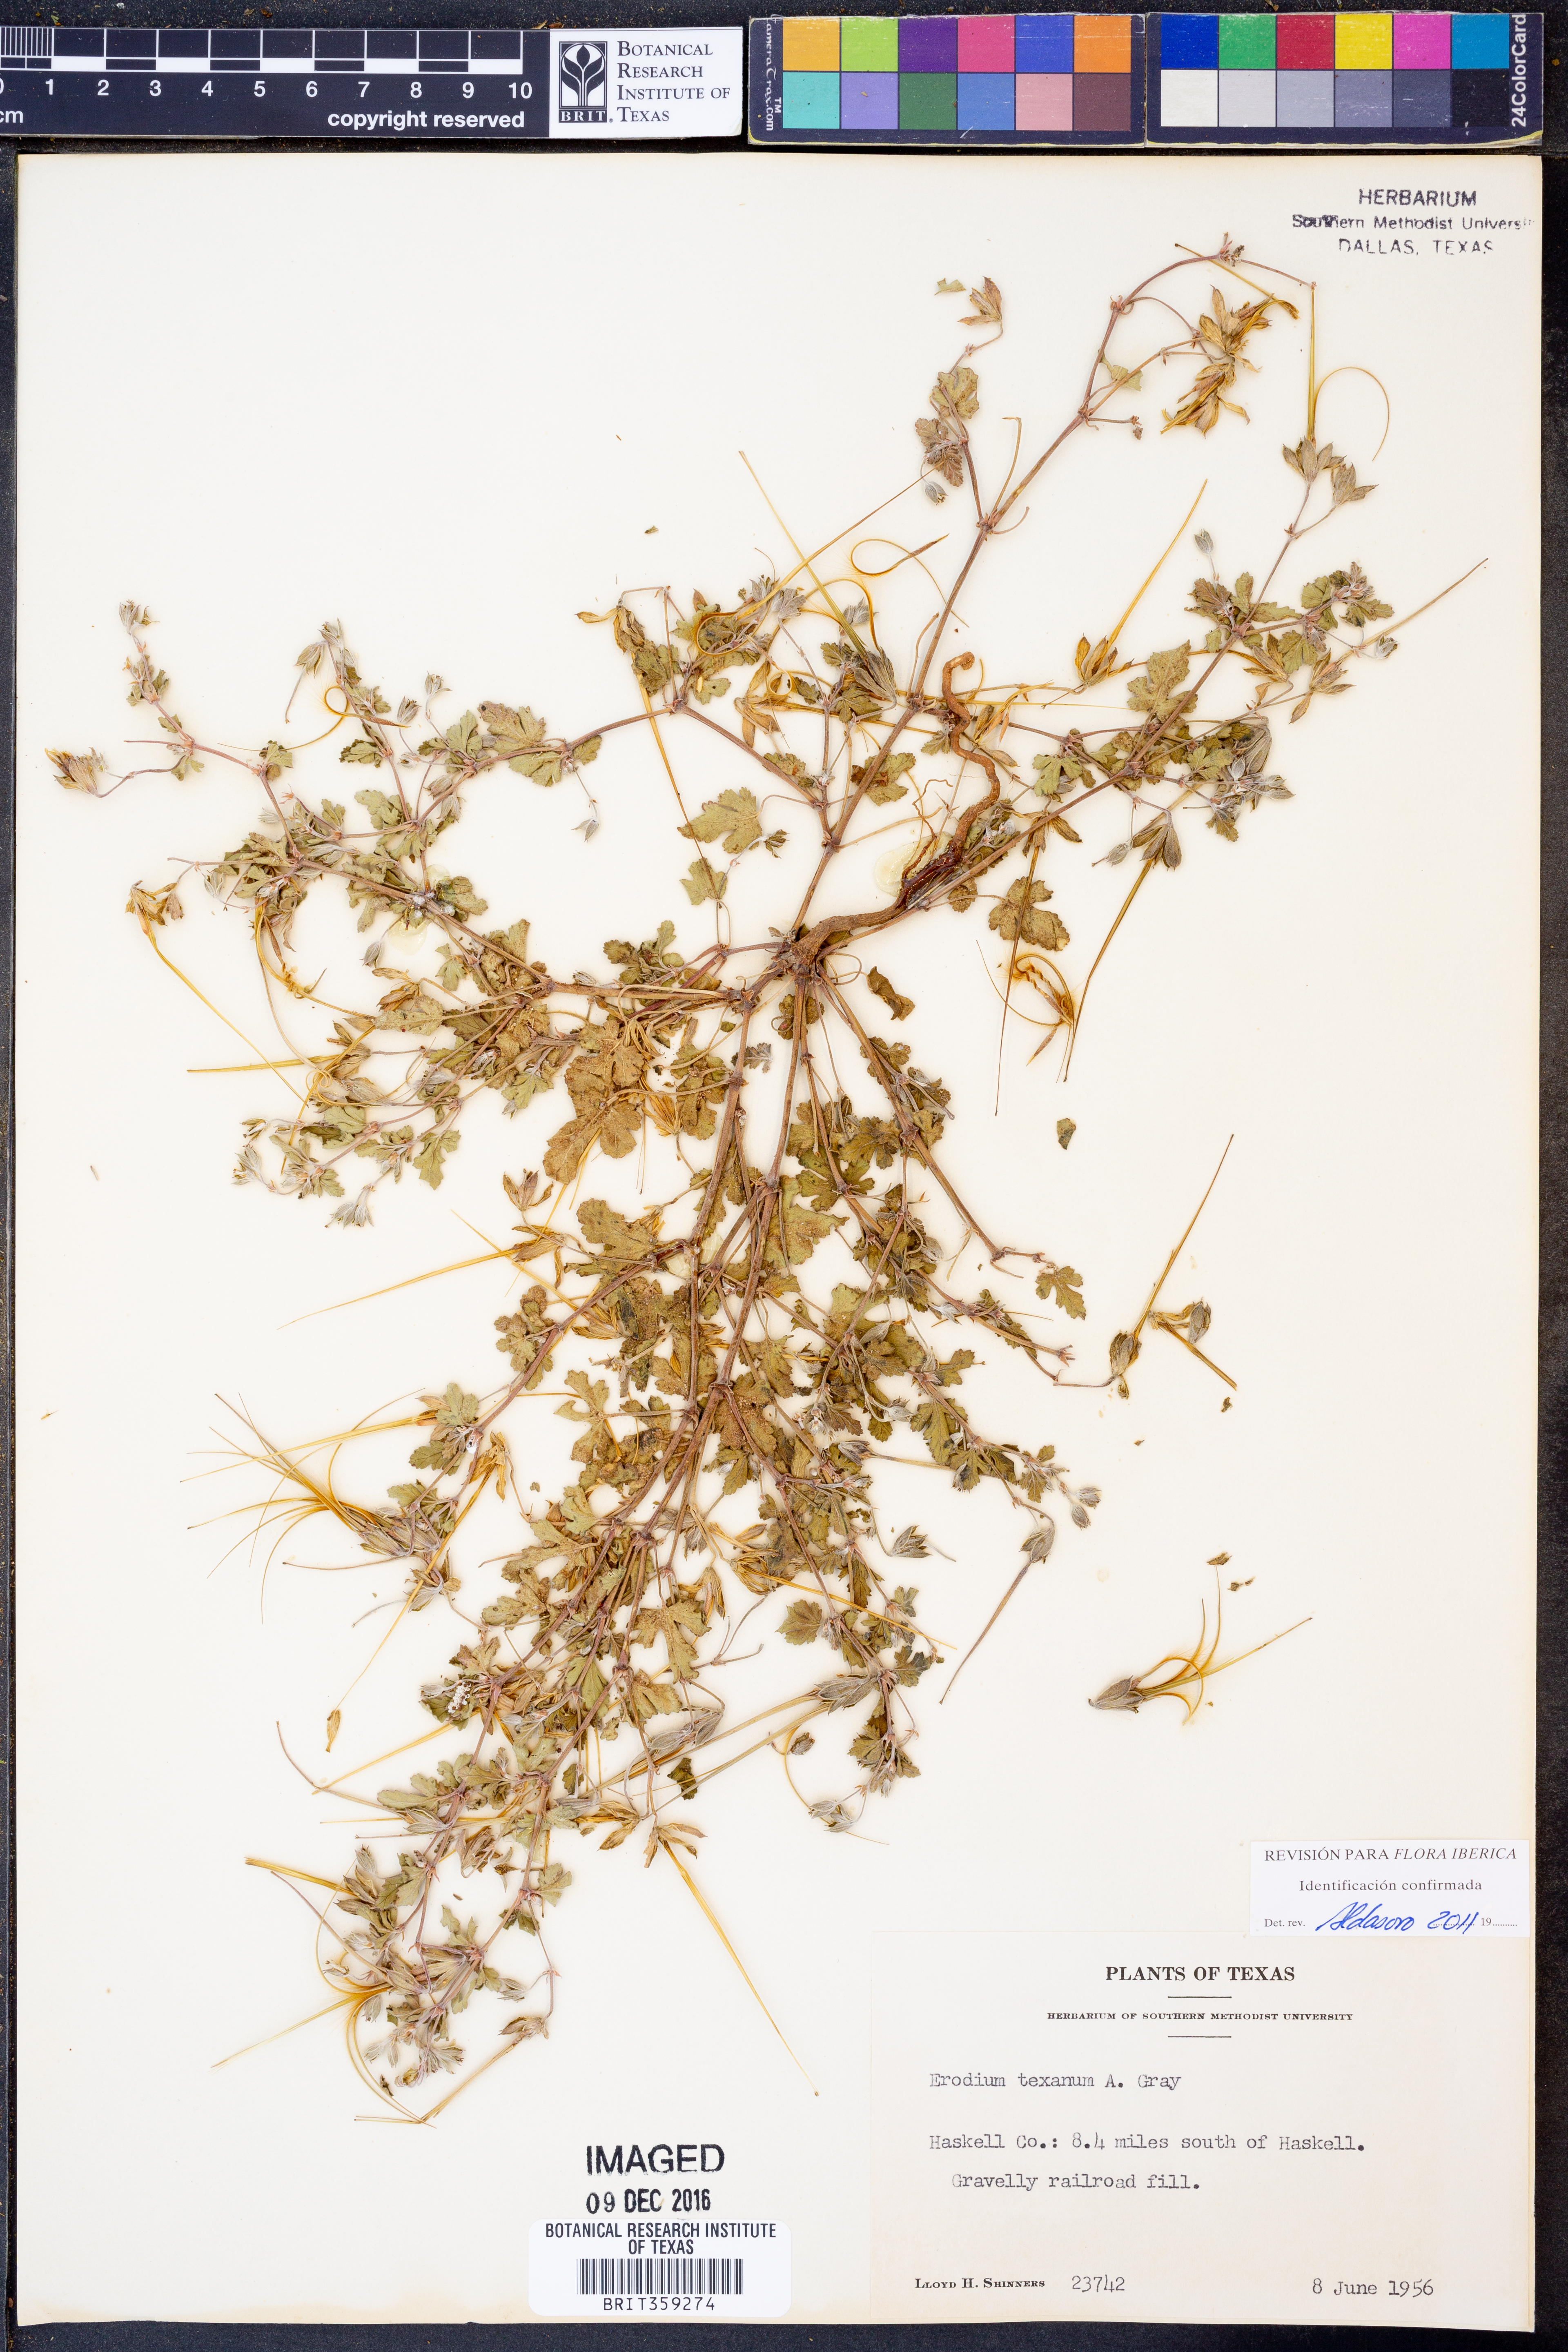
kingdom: Plantae
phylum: Tracheophyta
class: Magnoliopsida
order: Geraniales
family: Geraniaceae
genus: Erodium
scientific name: Erodium texanum
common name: Texas stork's-bill
